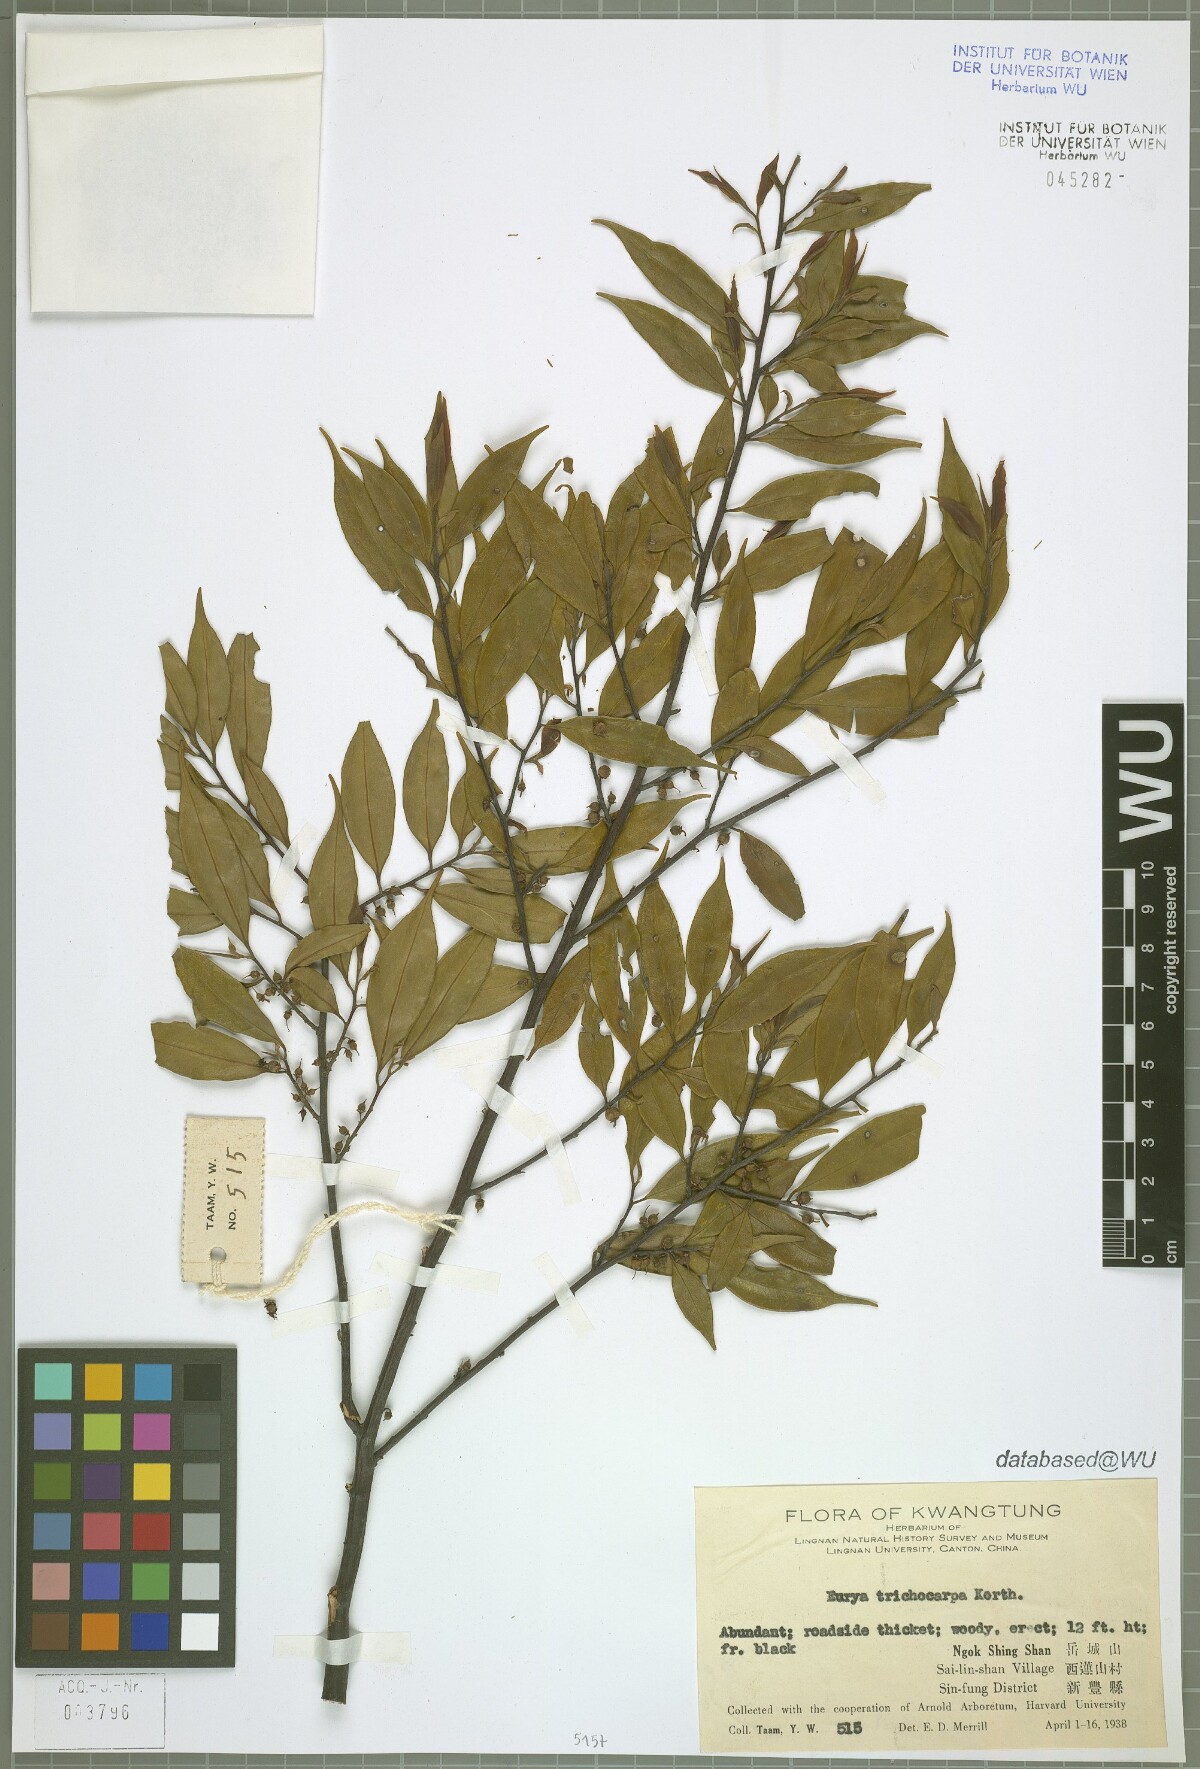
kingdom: Plantae
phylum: Tracheophyta
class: Magnoliopsida
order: Ericales
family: Pentaphylacaceae
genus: Eurya
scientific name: Eurya trichocarpa
